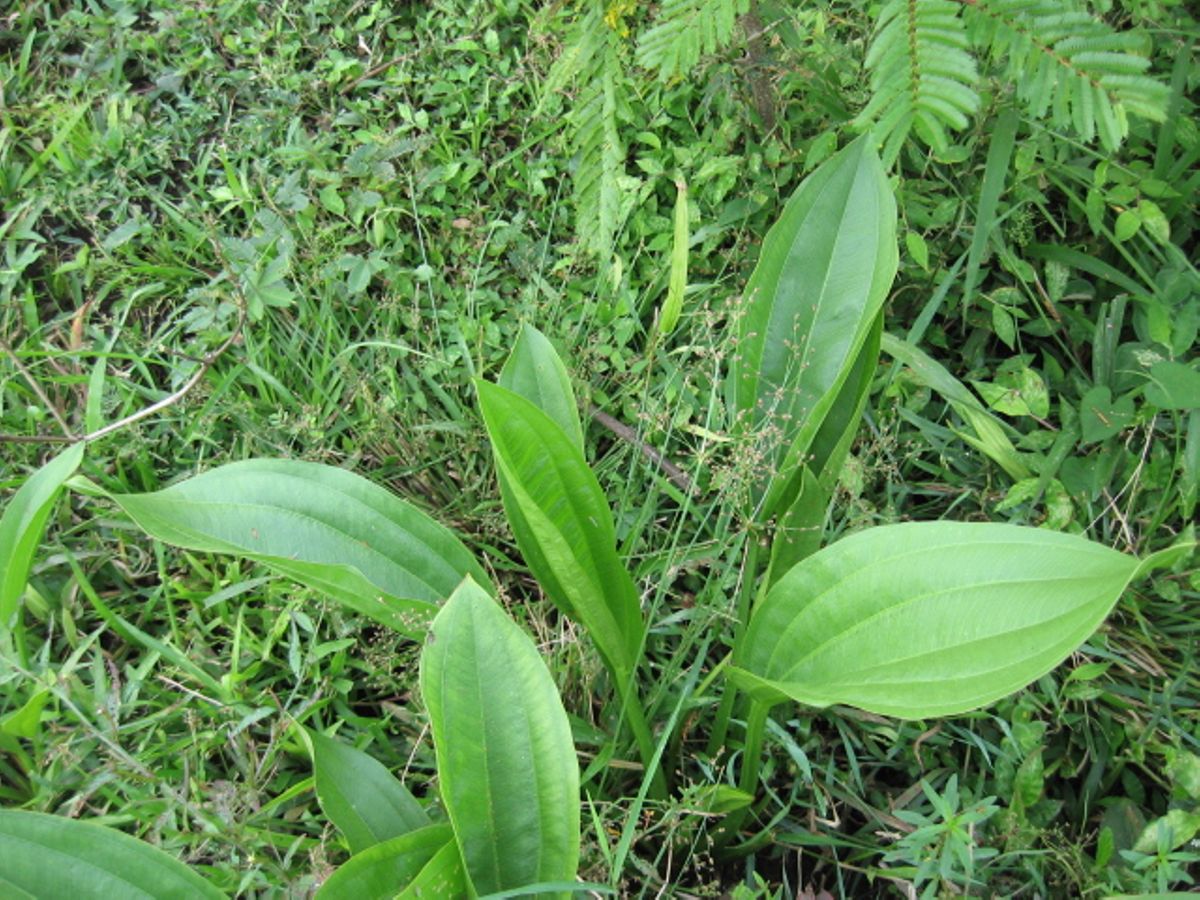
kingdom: Plantae
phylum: Tracheophyta
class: Liliopsida
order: Alismatales
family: Alismataceae
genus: Echinodorus
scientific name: Echinodorus
